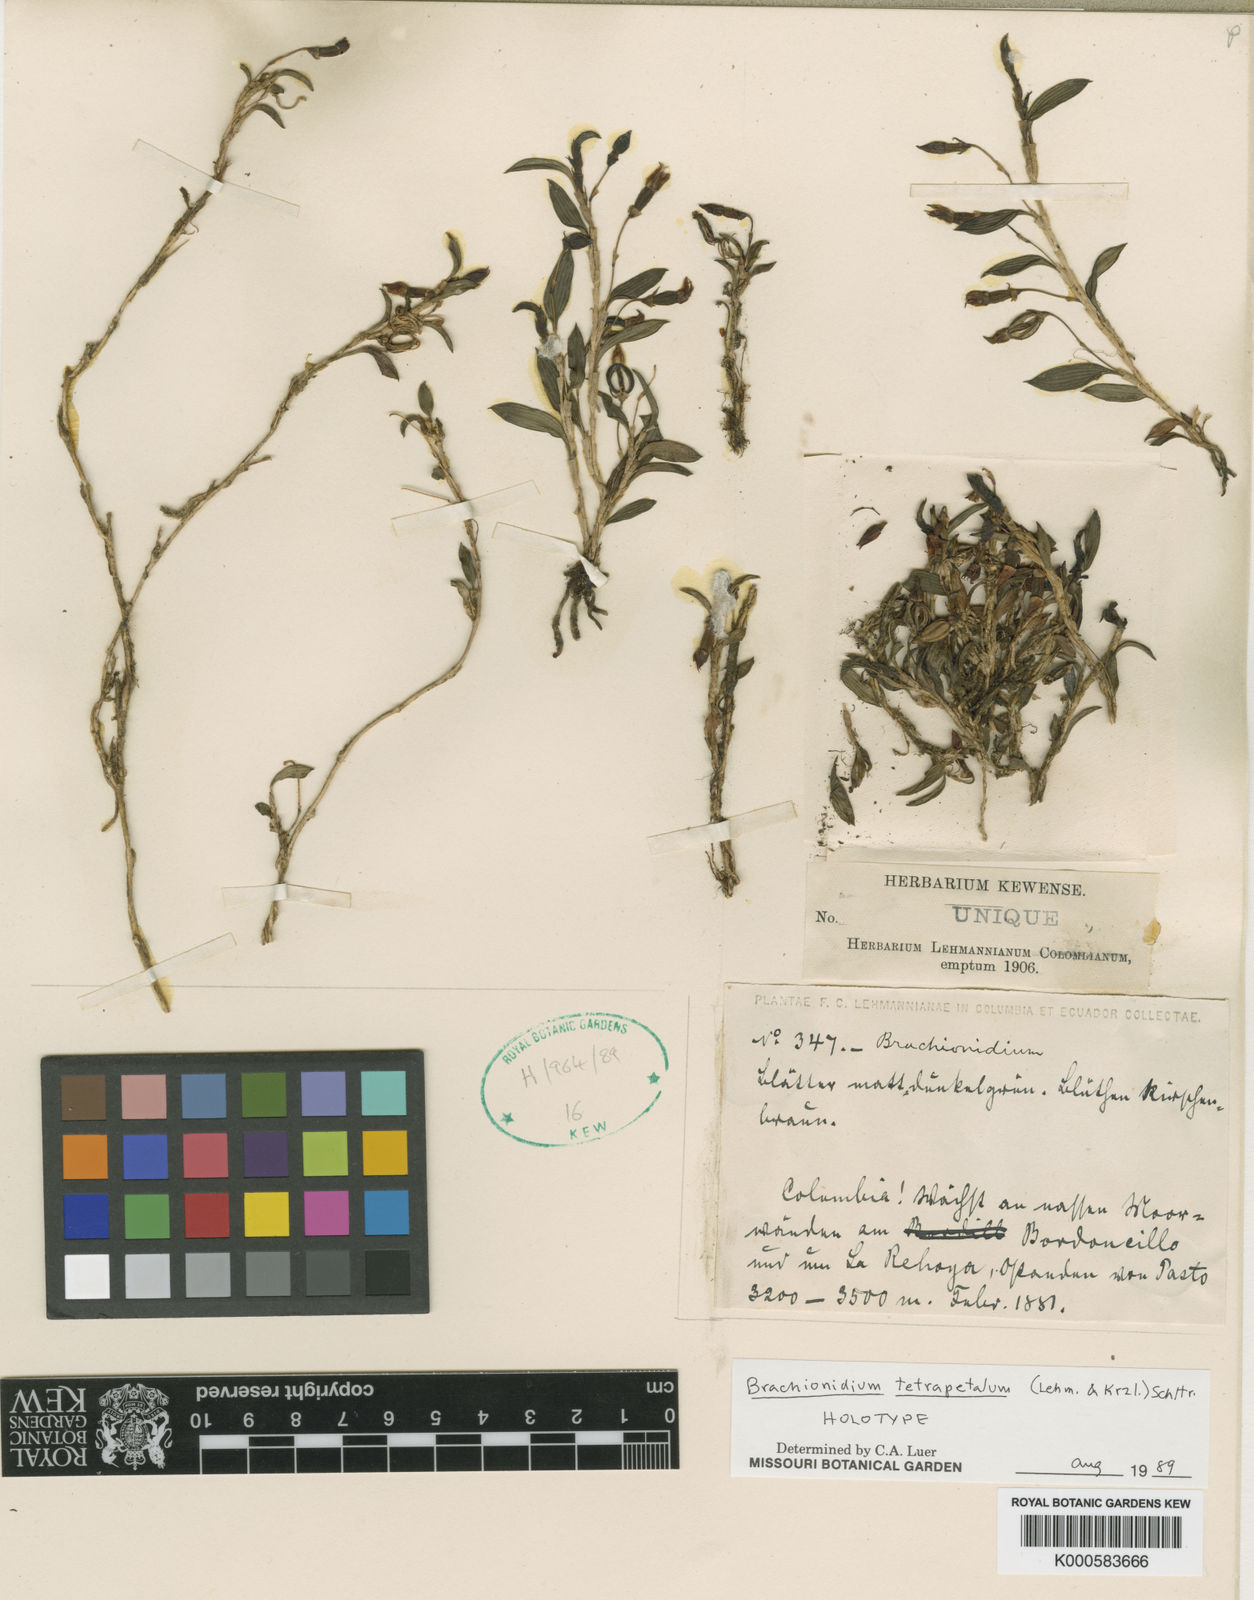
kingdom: Plantae
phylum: Tracheophyta
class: Liliopsida
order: Asparagales
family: Orchidaceae
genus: Brachionidium
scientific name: Brachionidium tetrapetalum
